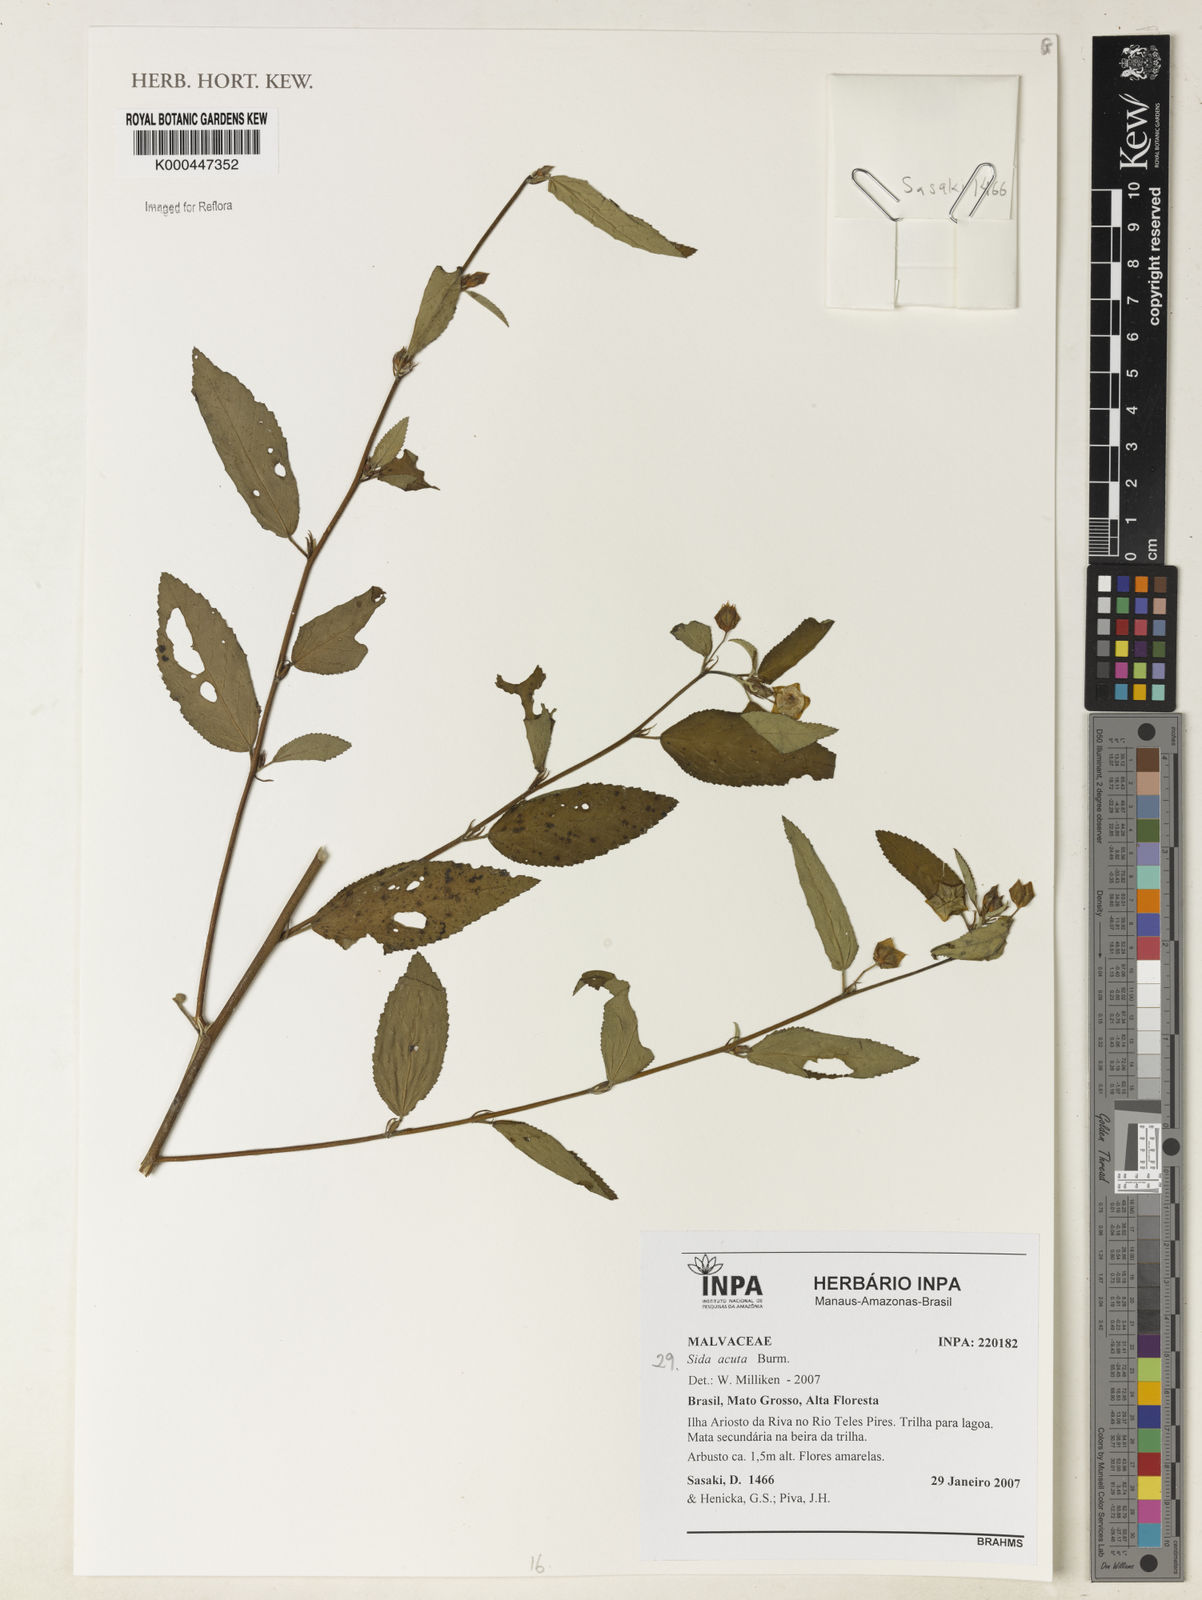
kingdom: Plantae
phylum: Tracheophyta
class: Magnoliopsida
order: Malvales
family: Malvaceae
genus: Sida
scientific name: Sida acuta
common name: Common wireweed
